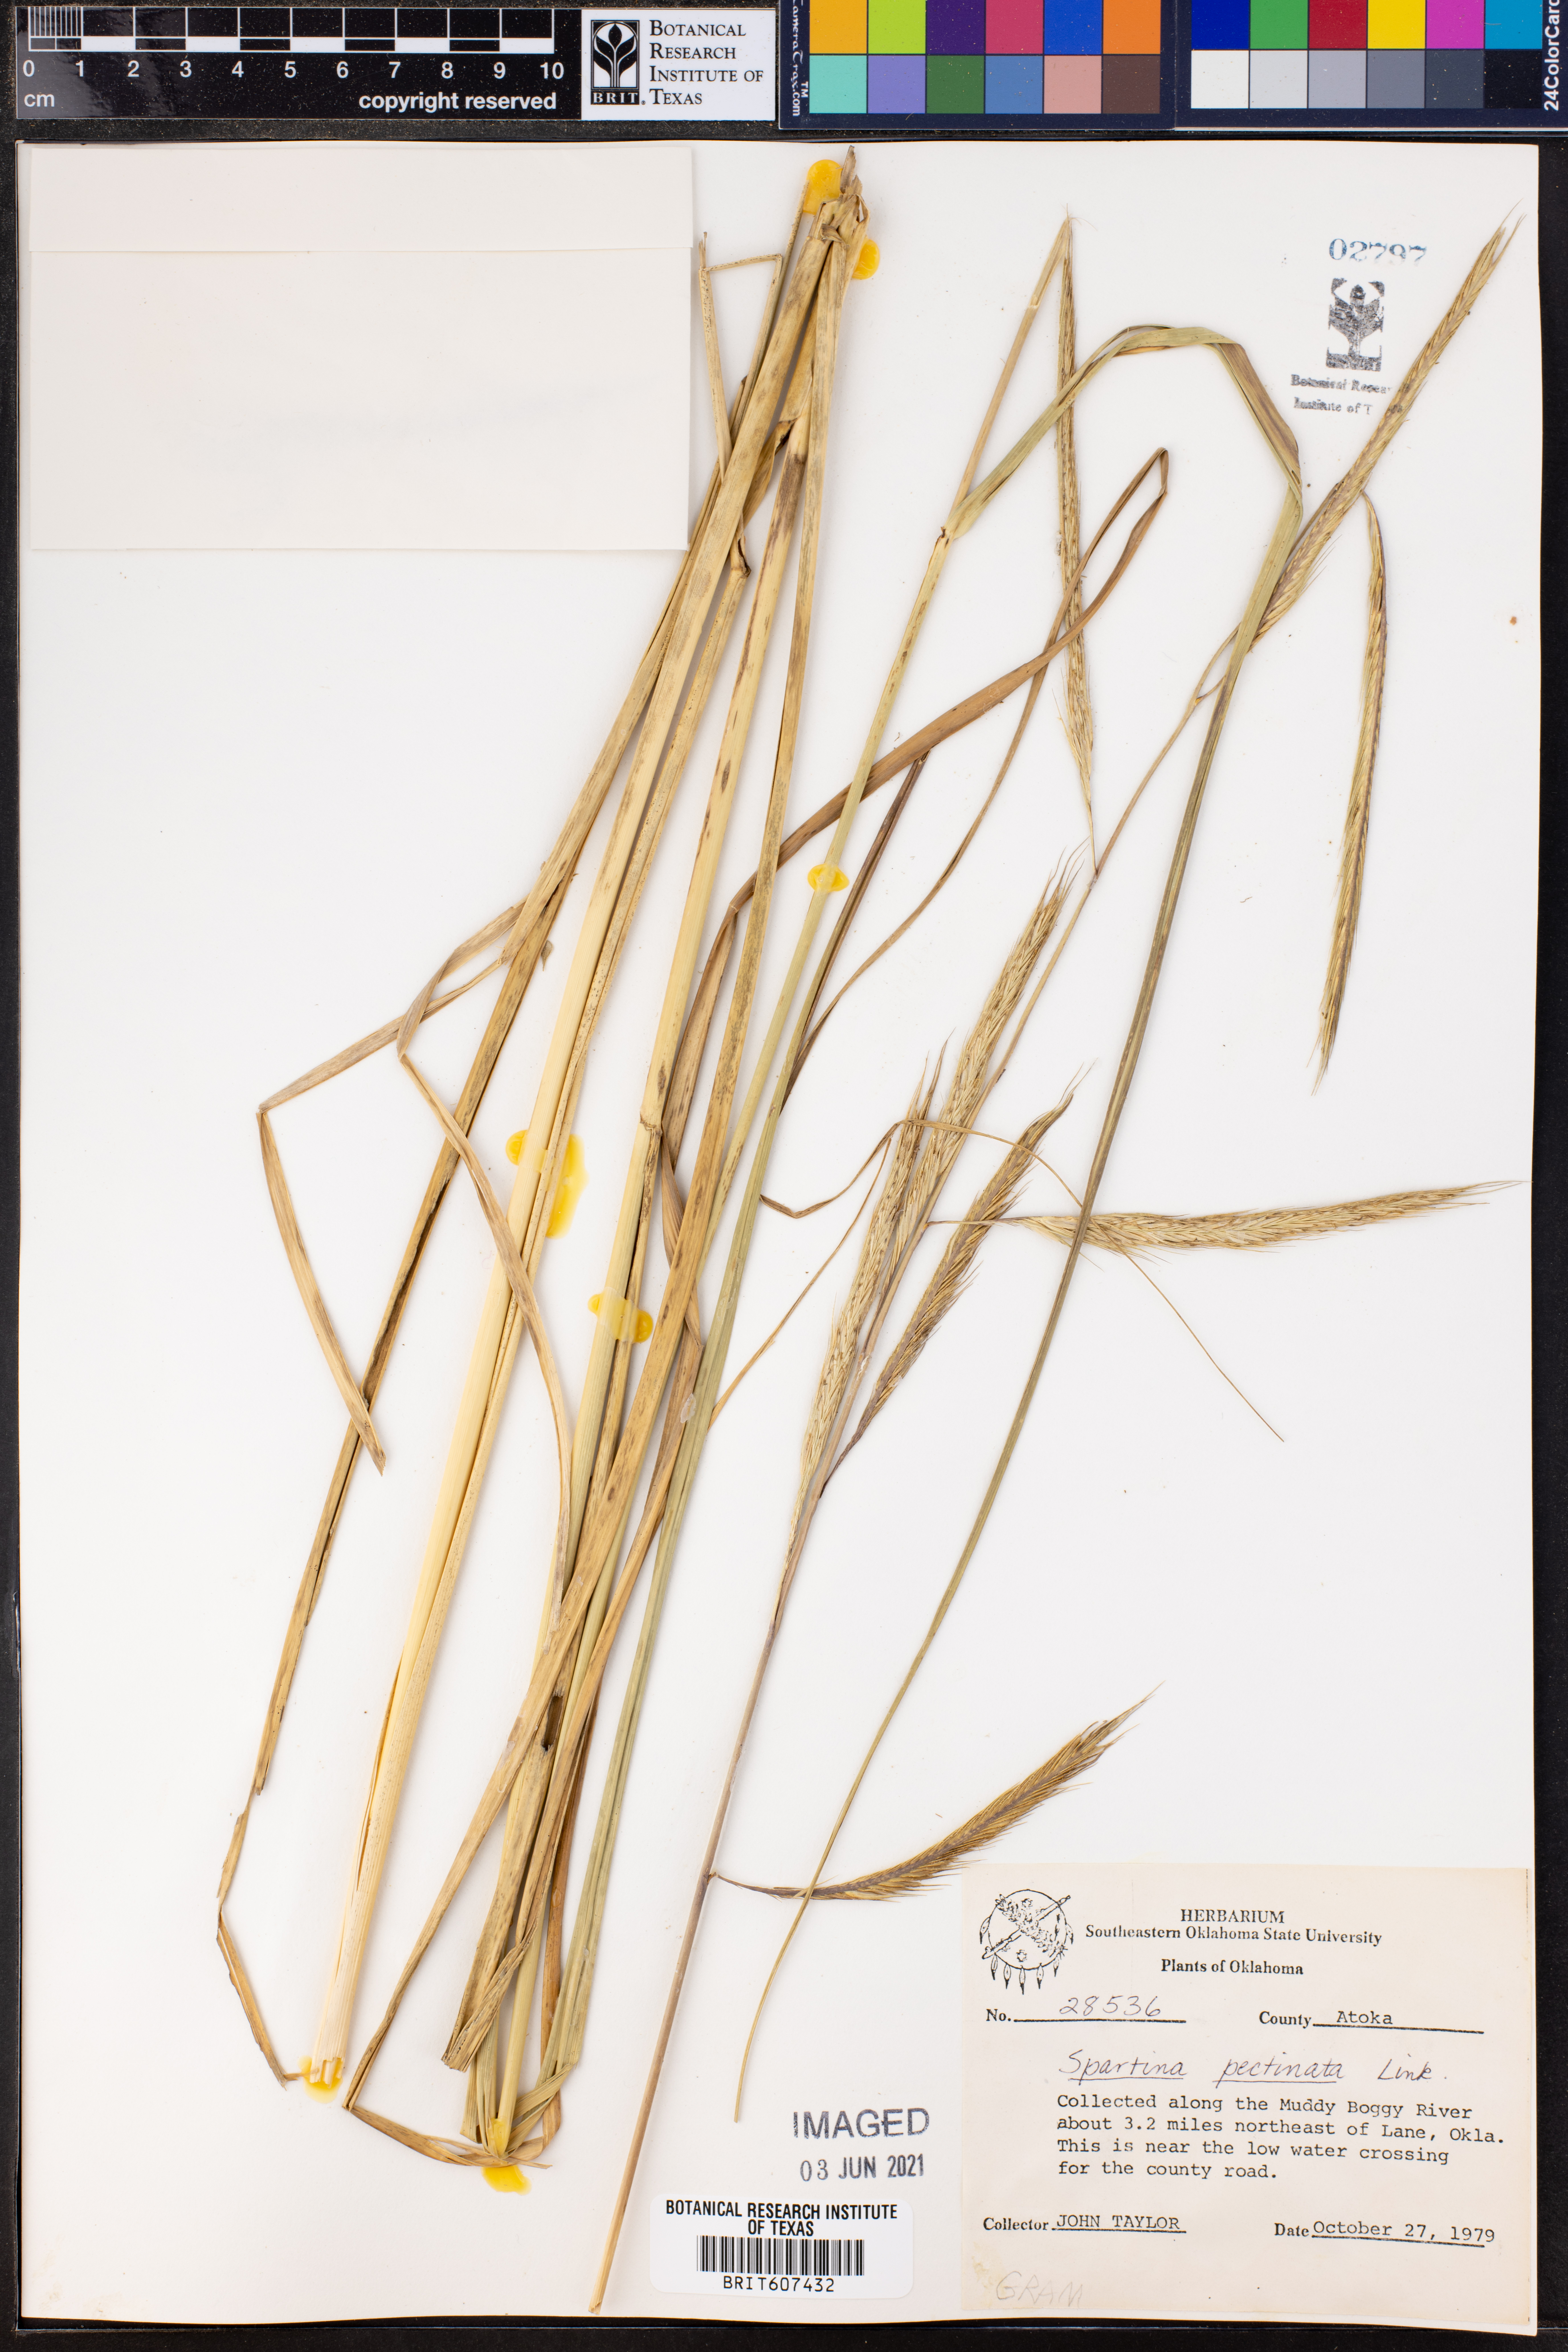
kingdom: Plantae
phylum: Tracheophyta
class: Liliopsida
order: Poales
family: Poaceae
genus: Sporobolus
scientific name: Sporobolus michauxianus
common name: Freshwater cordgrass
